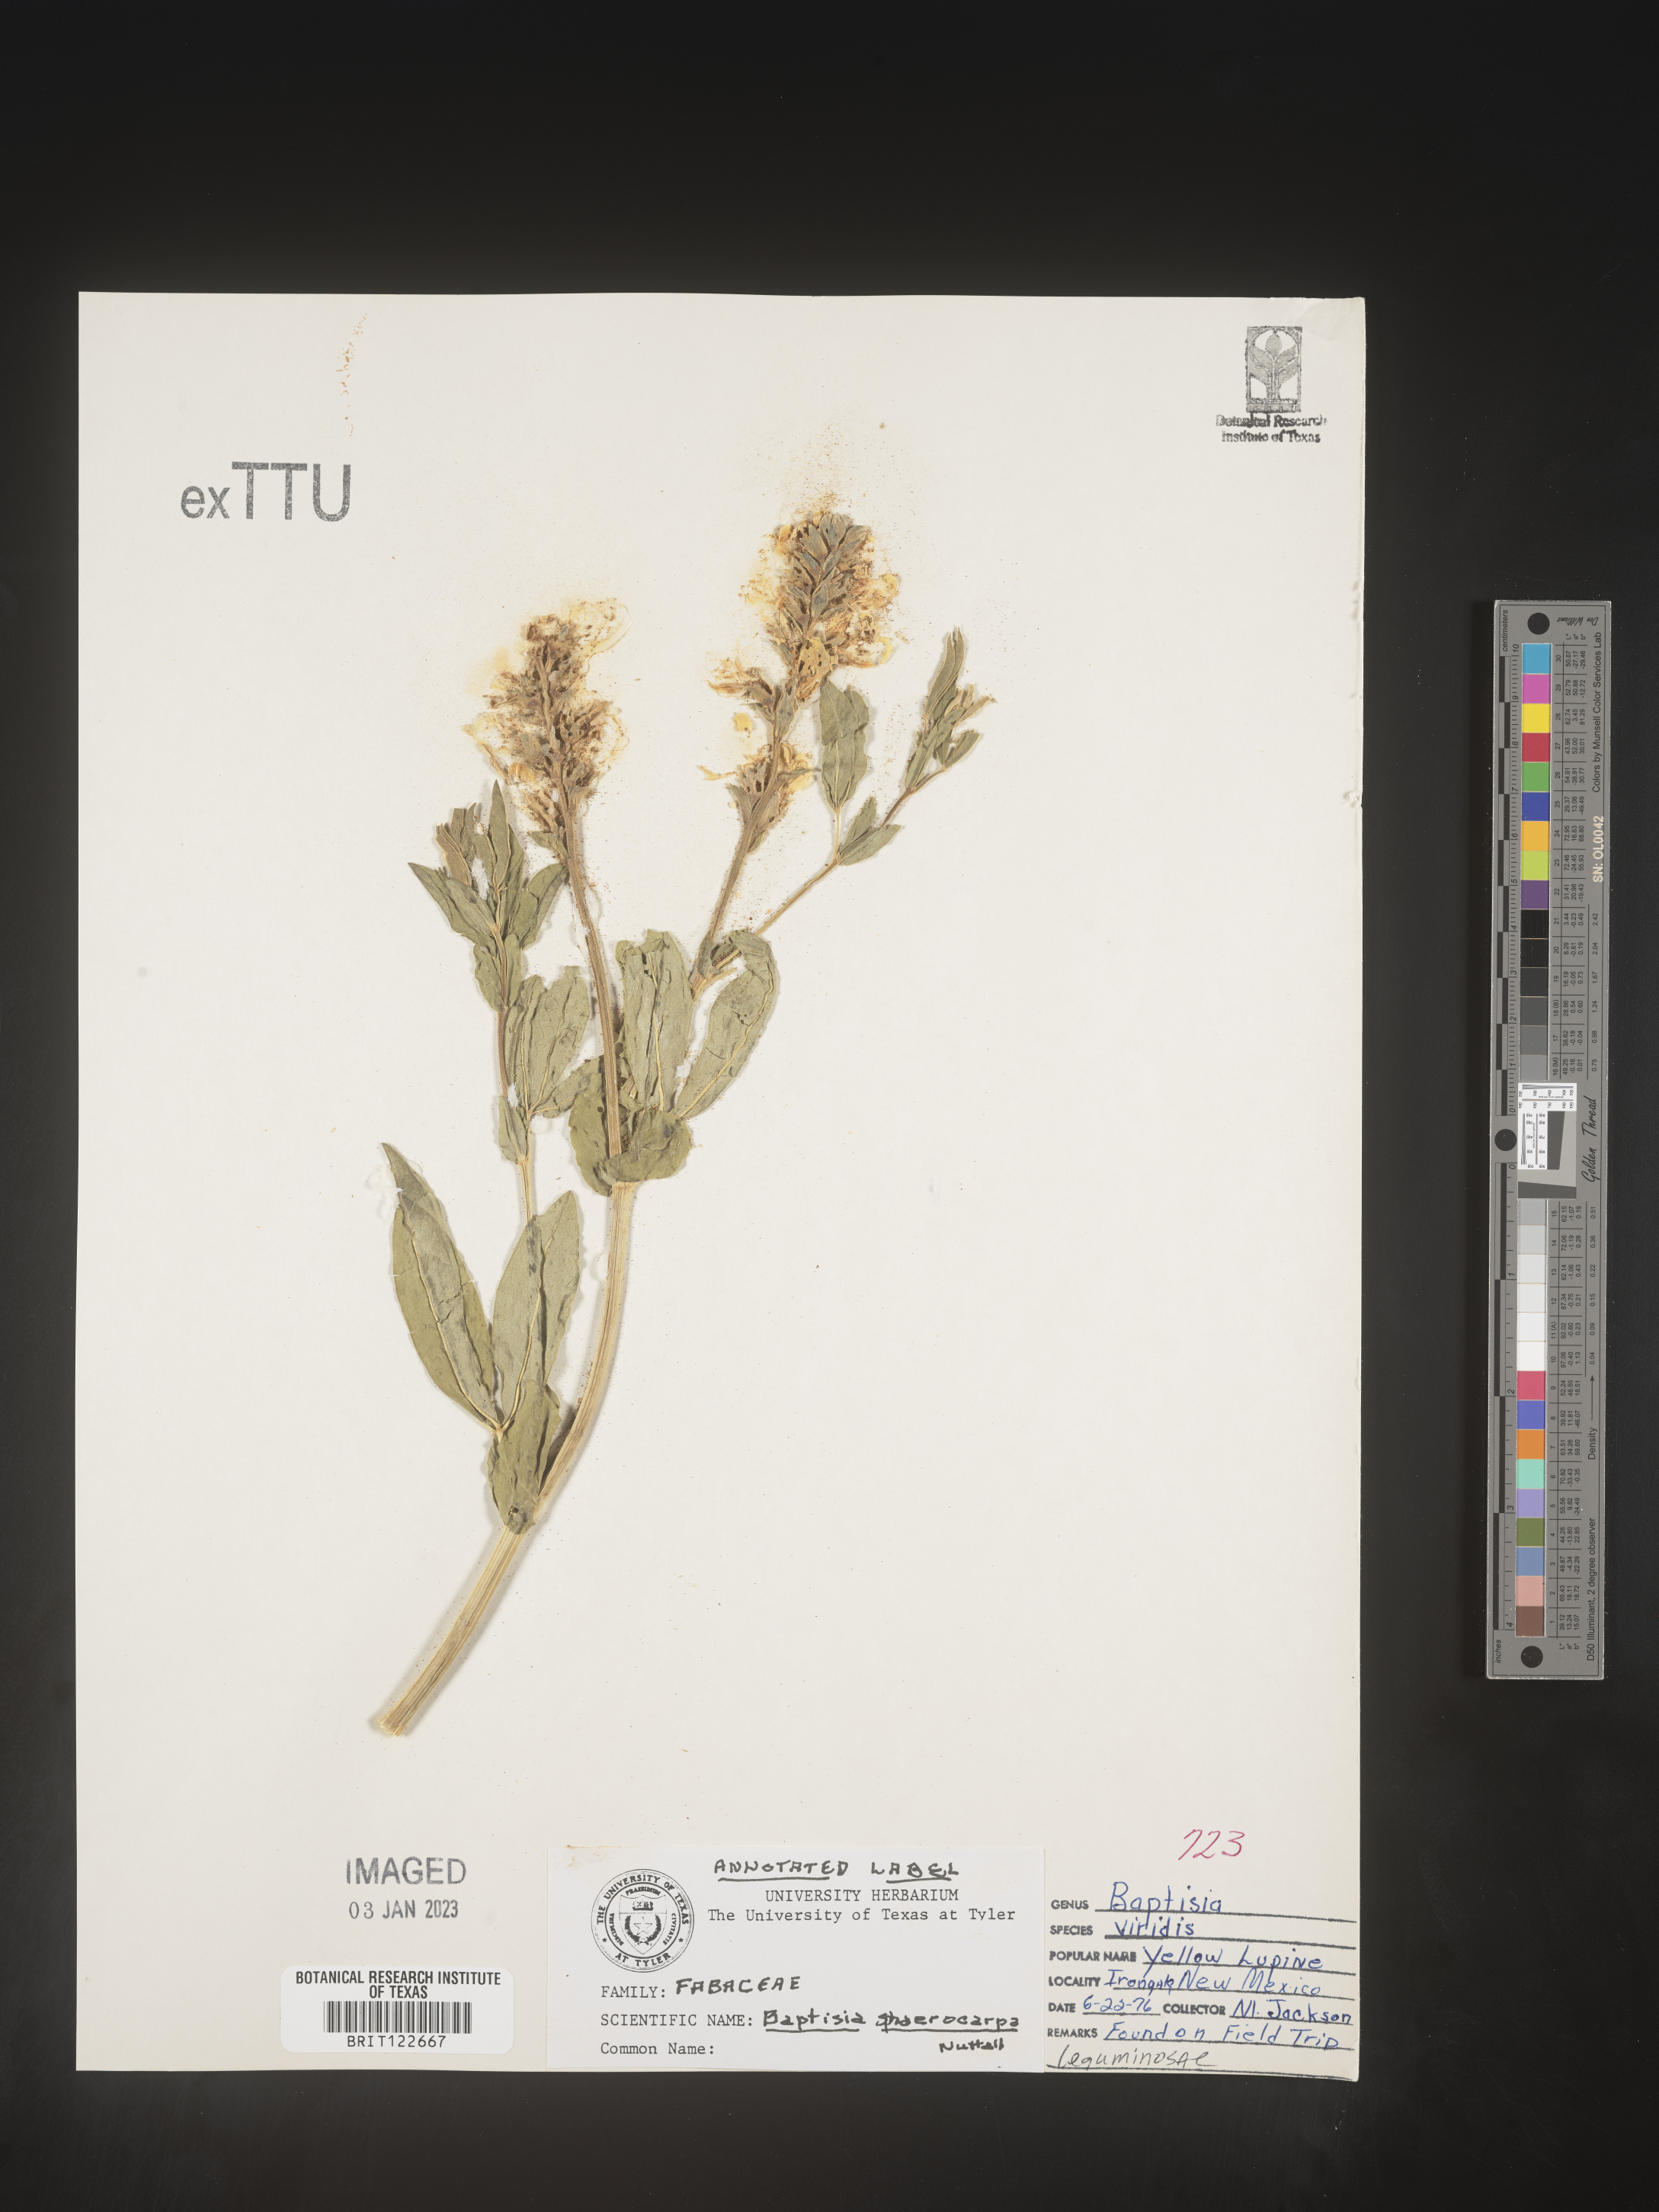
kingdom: Plantae
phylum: Tracheophyta
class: Magnoliopsida
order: Fabales
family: Fabaceae
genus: Baptisia
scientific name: Baptisia sphaerocarpa
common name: Round wild indigo
